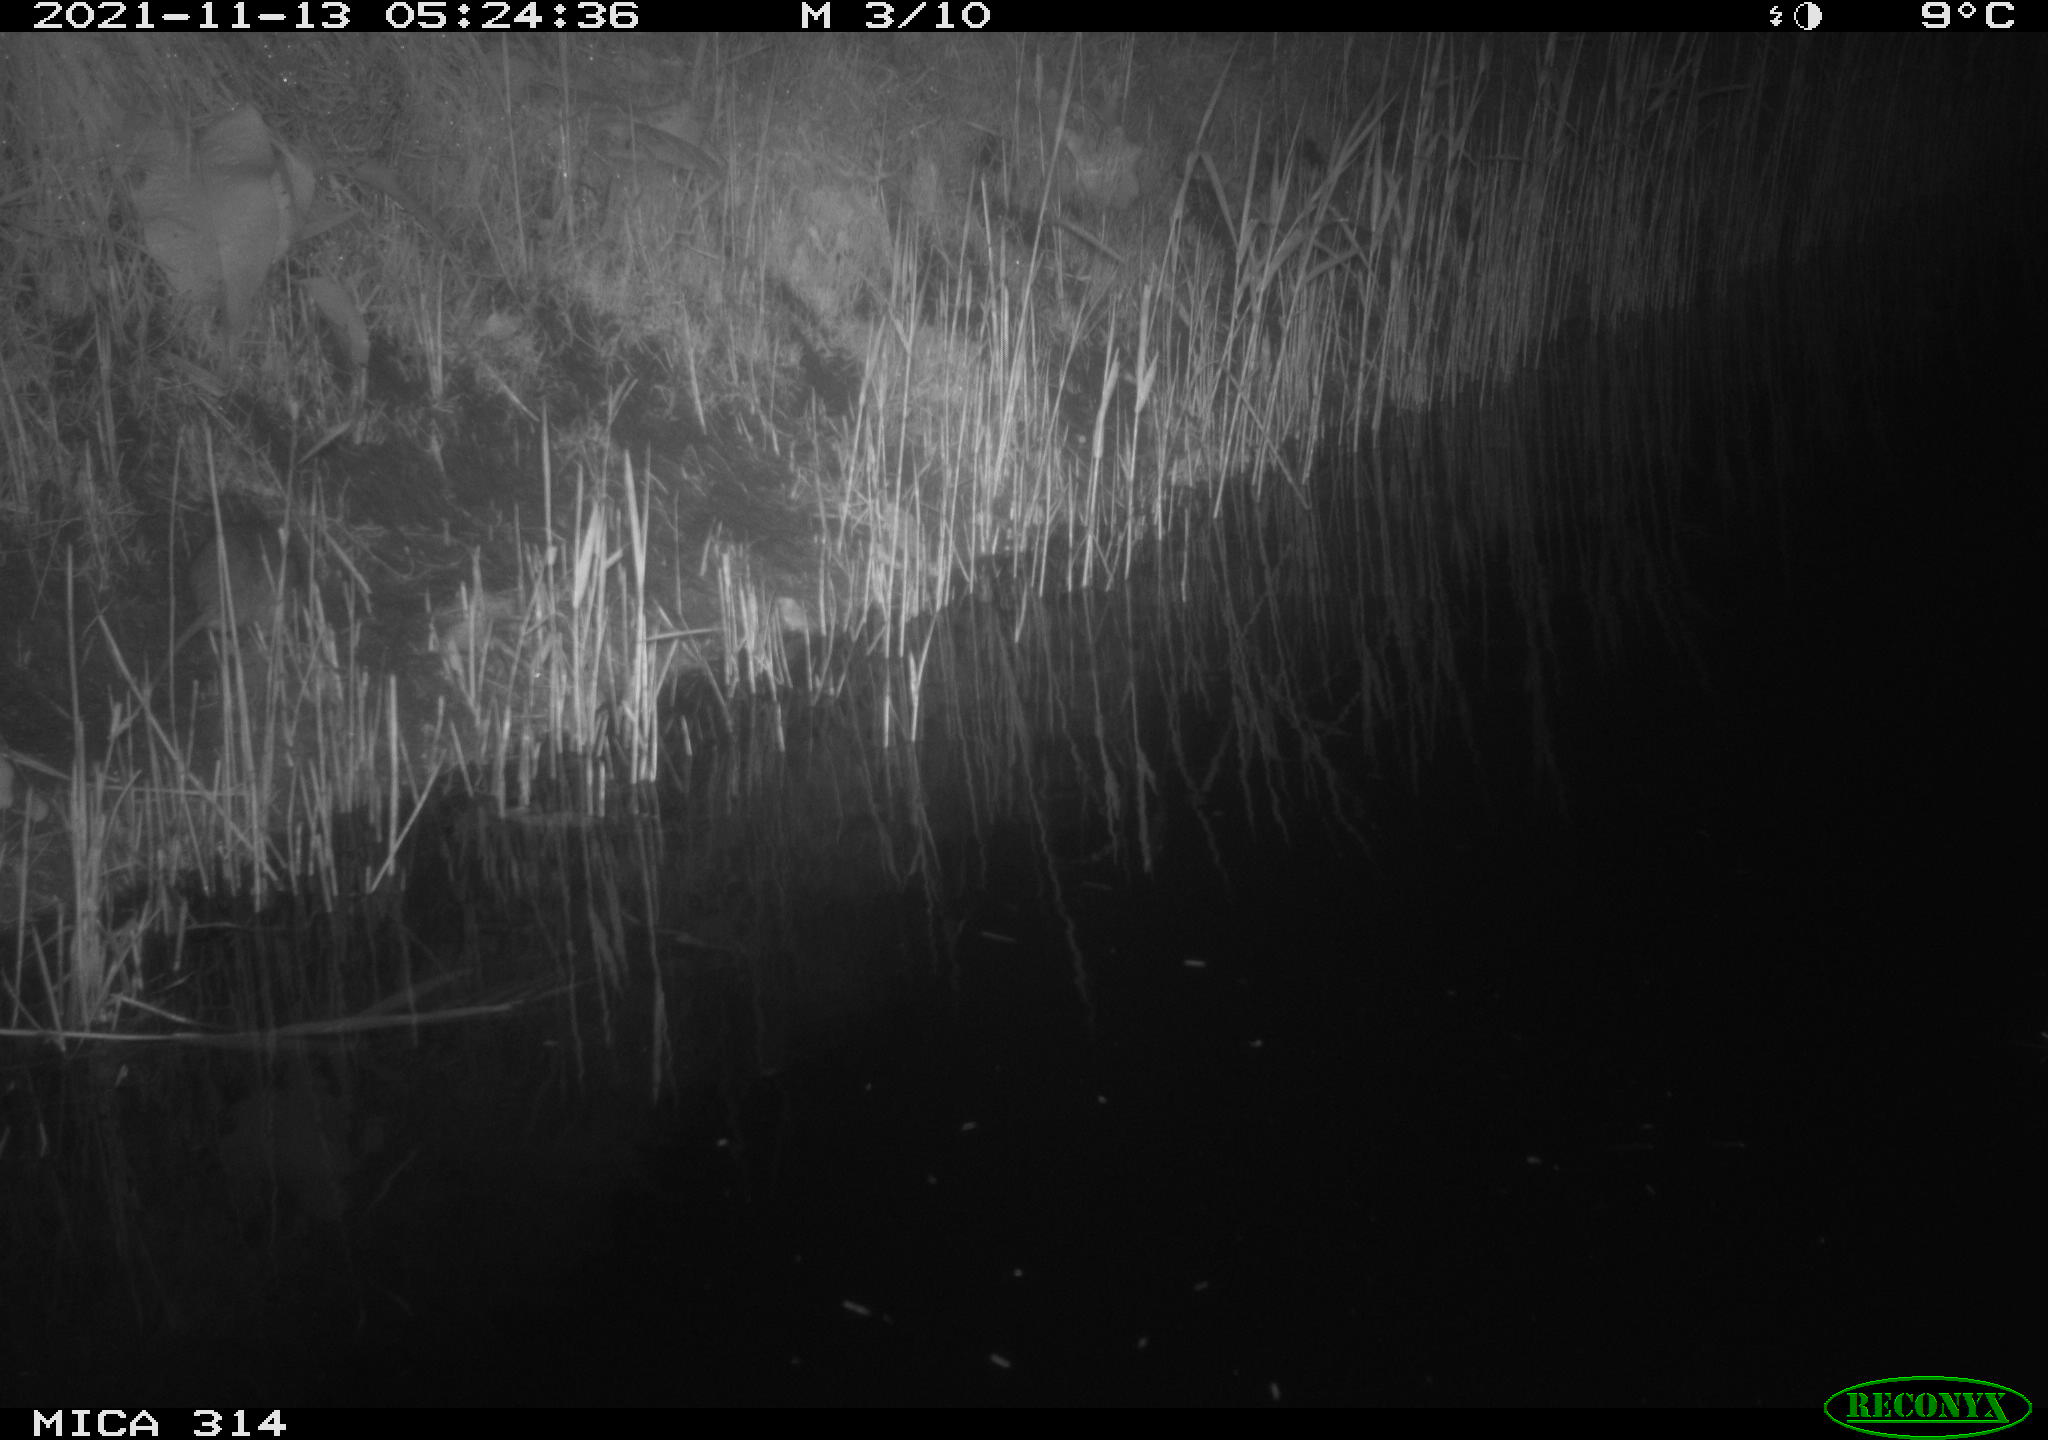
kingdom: Animalia
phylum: Chordata
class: Mammalia
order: Rodentia
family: Muridae
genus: Rattus
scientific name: Rattus norvegicus
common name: Brown rat
